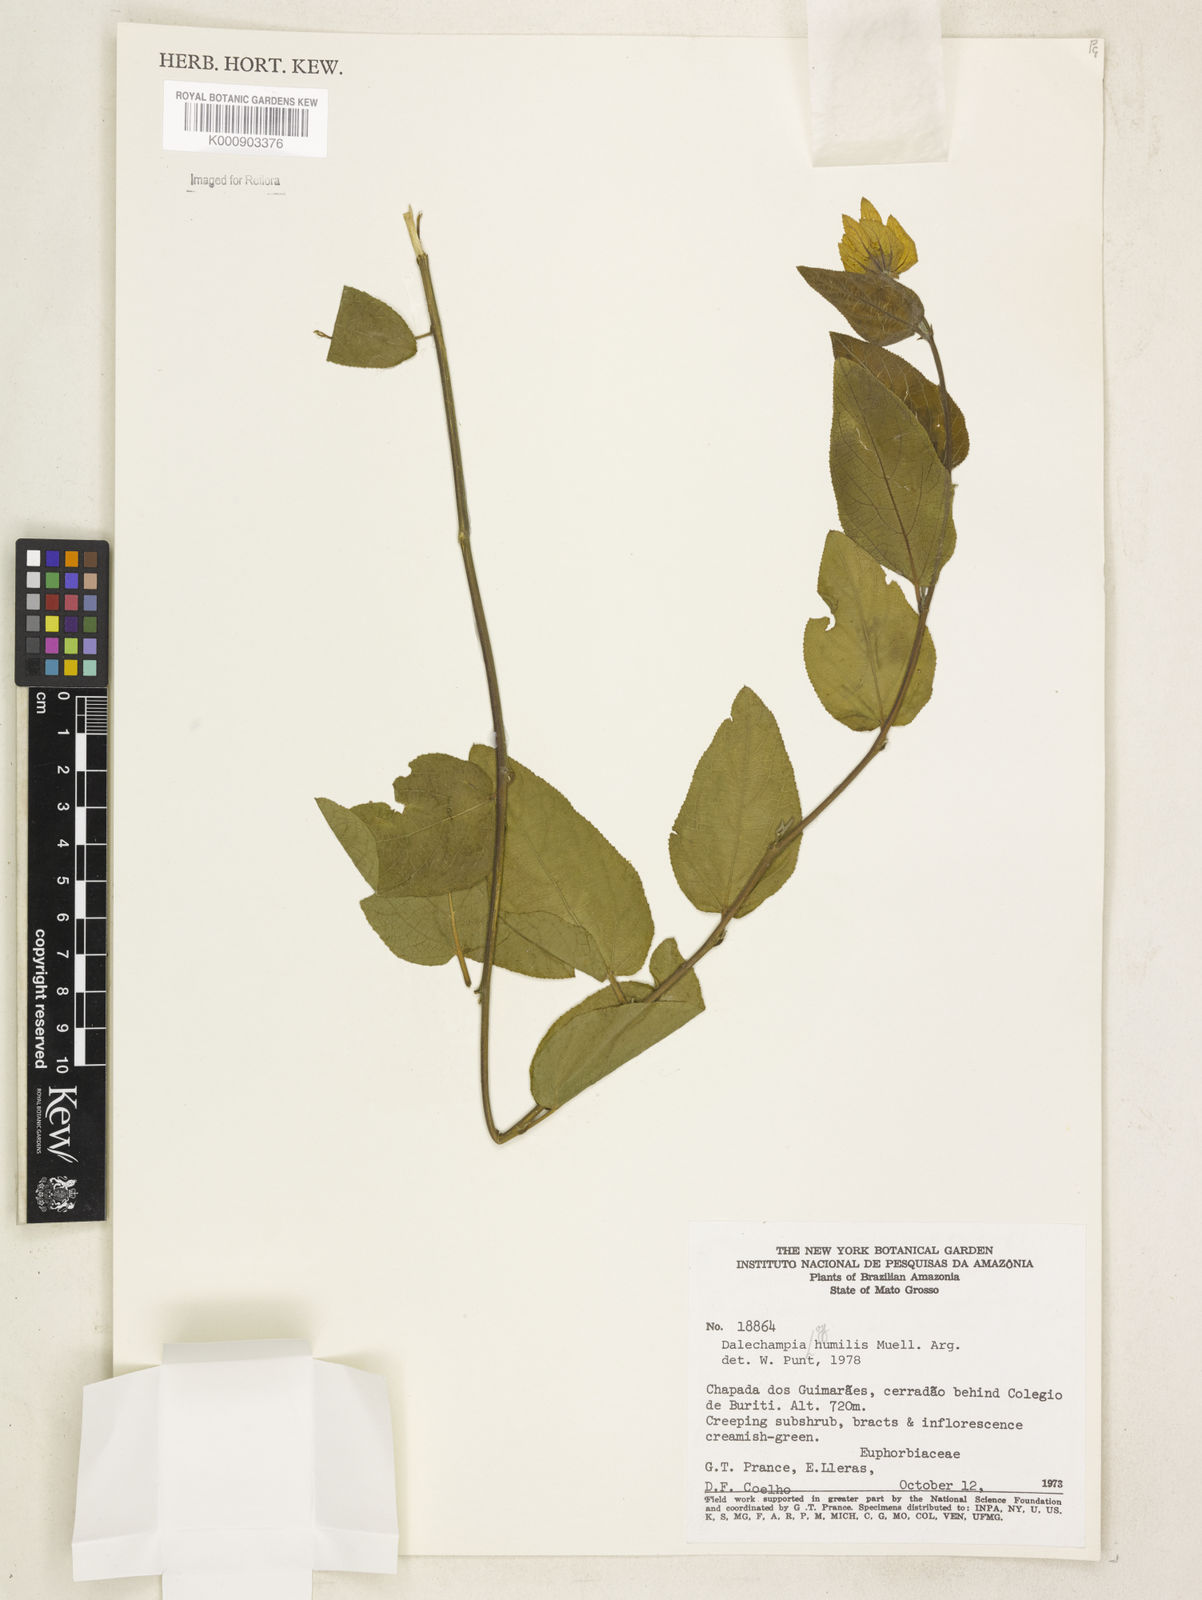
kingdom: Plantae
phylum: Tracheophyta
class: Magnoliopsida
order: Malpighiales
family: Euphorbiaceae
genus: Dalechampia
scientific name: Dalechampia
